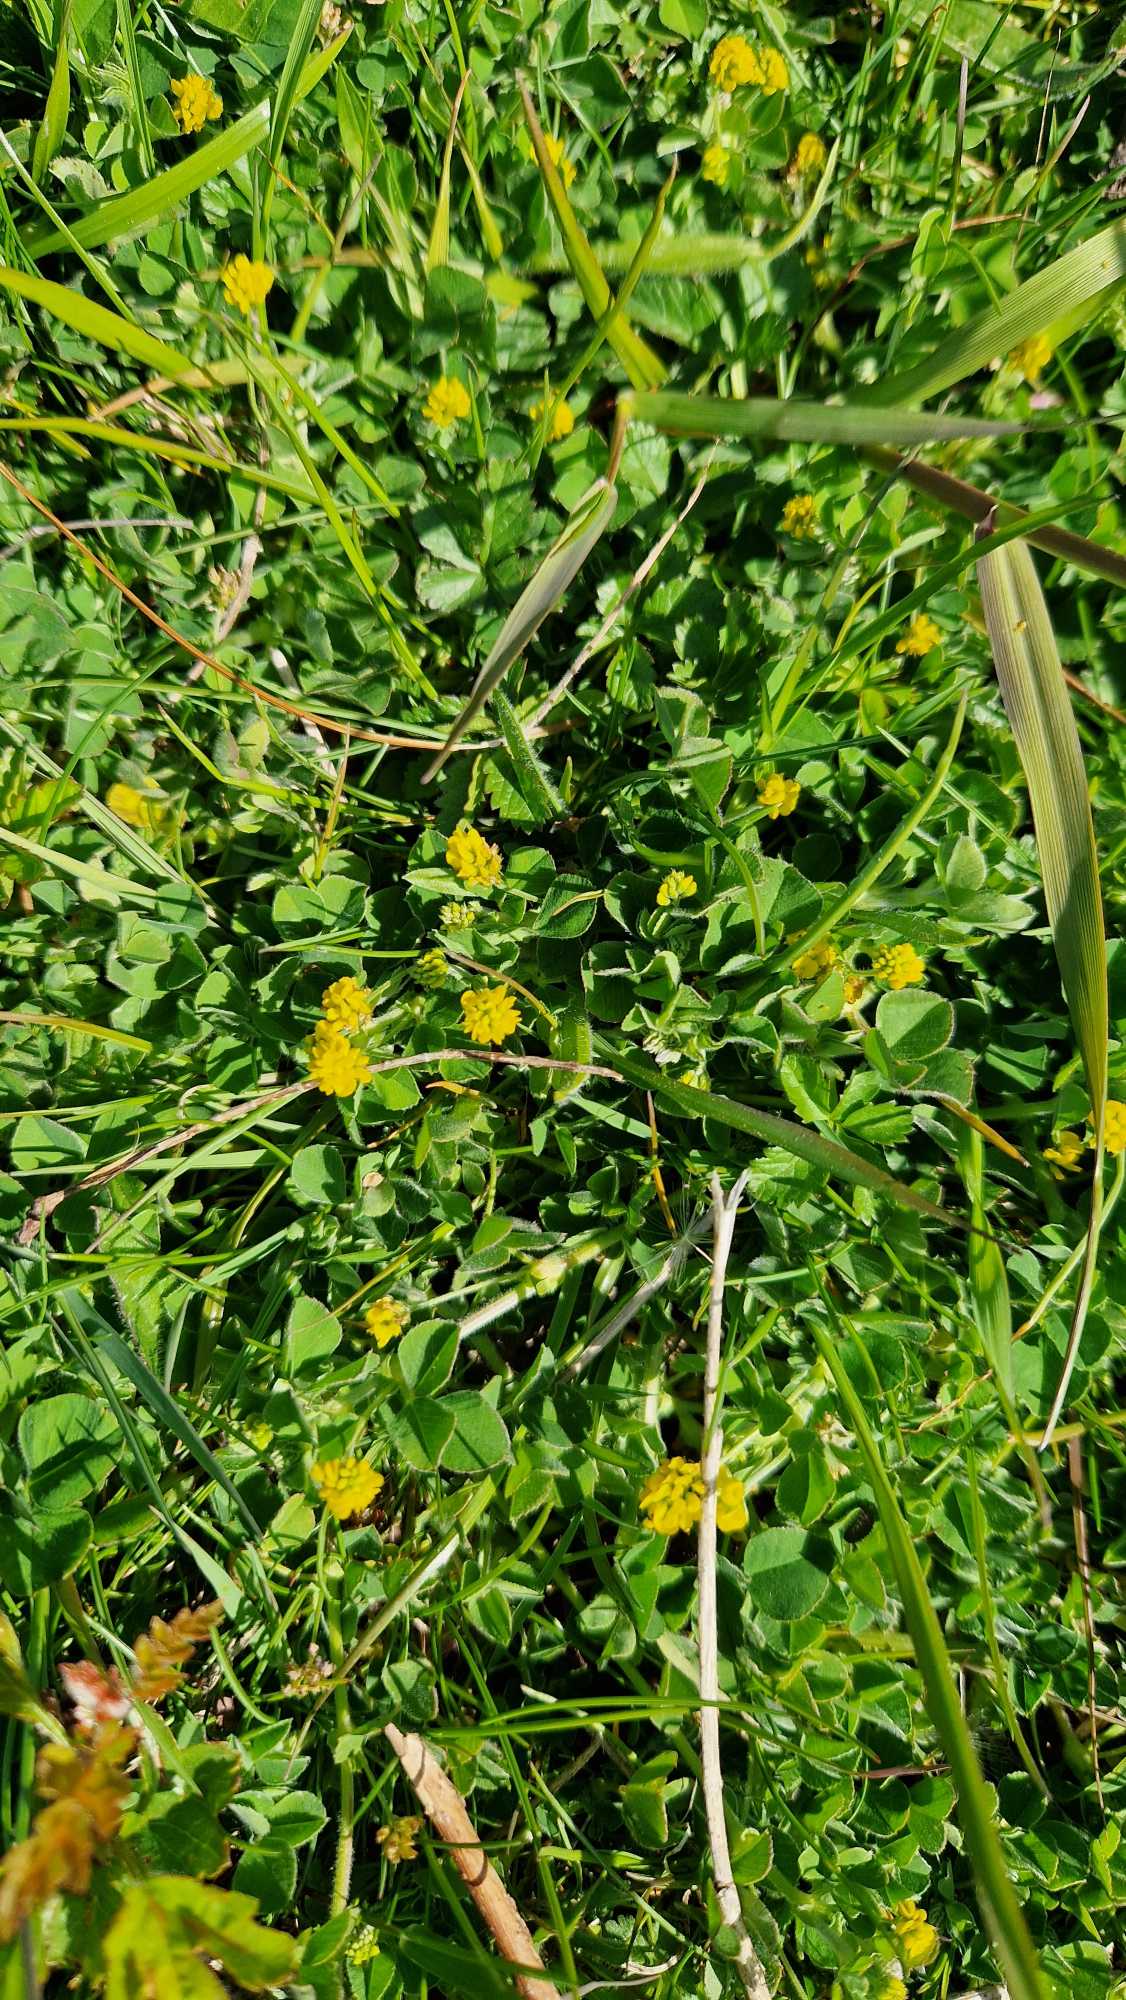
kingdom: Plantae
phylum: Tracheophyta
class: Magnoliopsida
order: Fabales
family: Fabaceae
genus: Medicago
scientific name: Medicago lupulina
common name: Humle-sneglebælg
